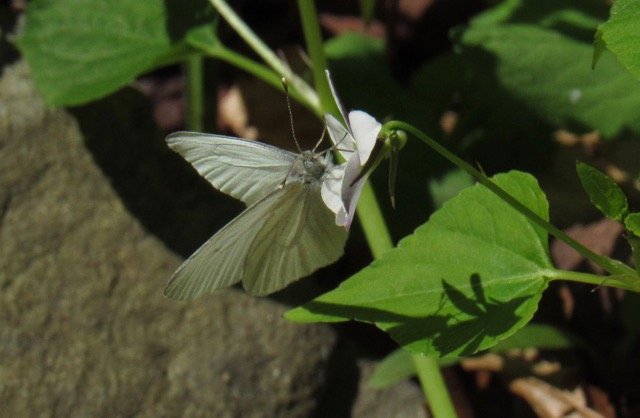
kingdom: Animalia
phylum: Arthropoda
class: Insecta
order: Lepidoptera
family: Pieridae
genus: Pieris
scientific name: Pieris virginiensis
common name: West Virginia White
